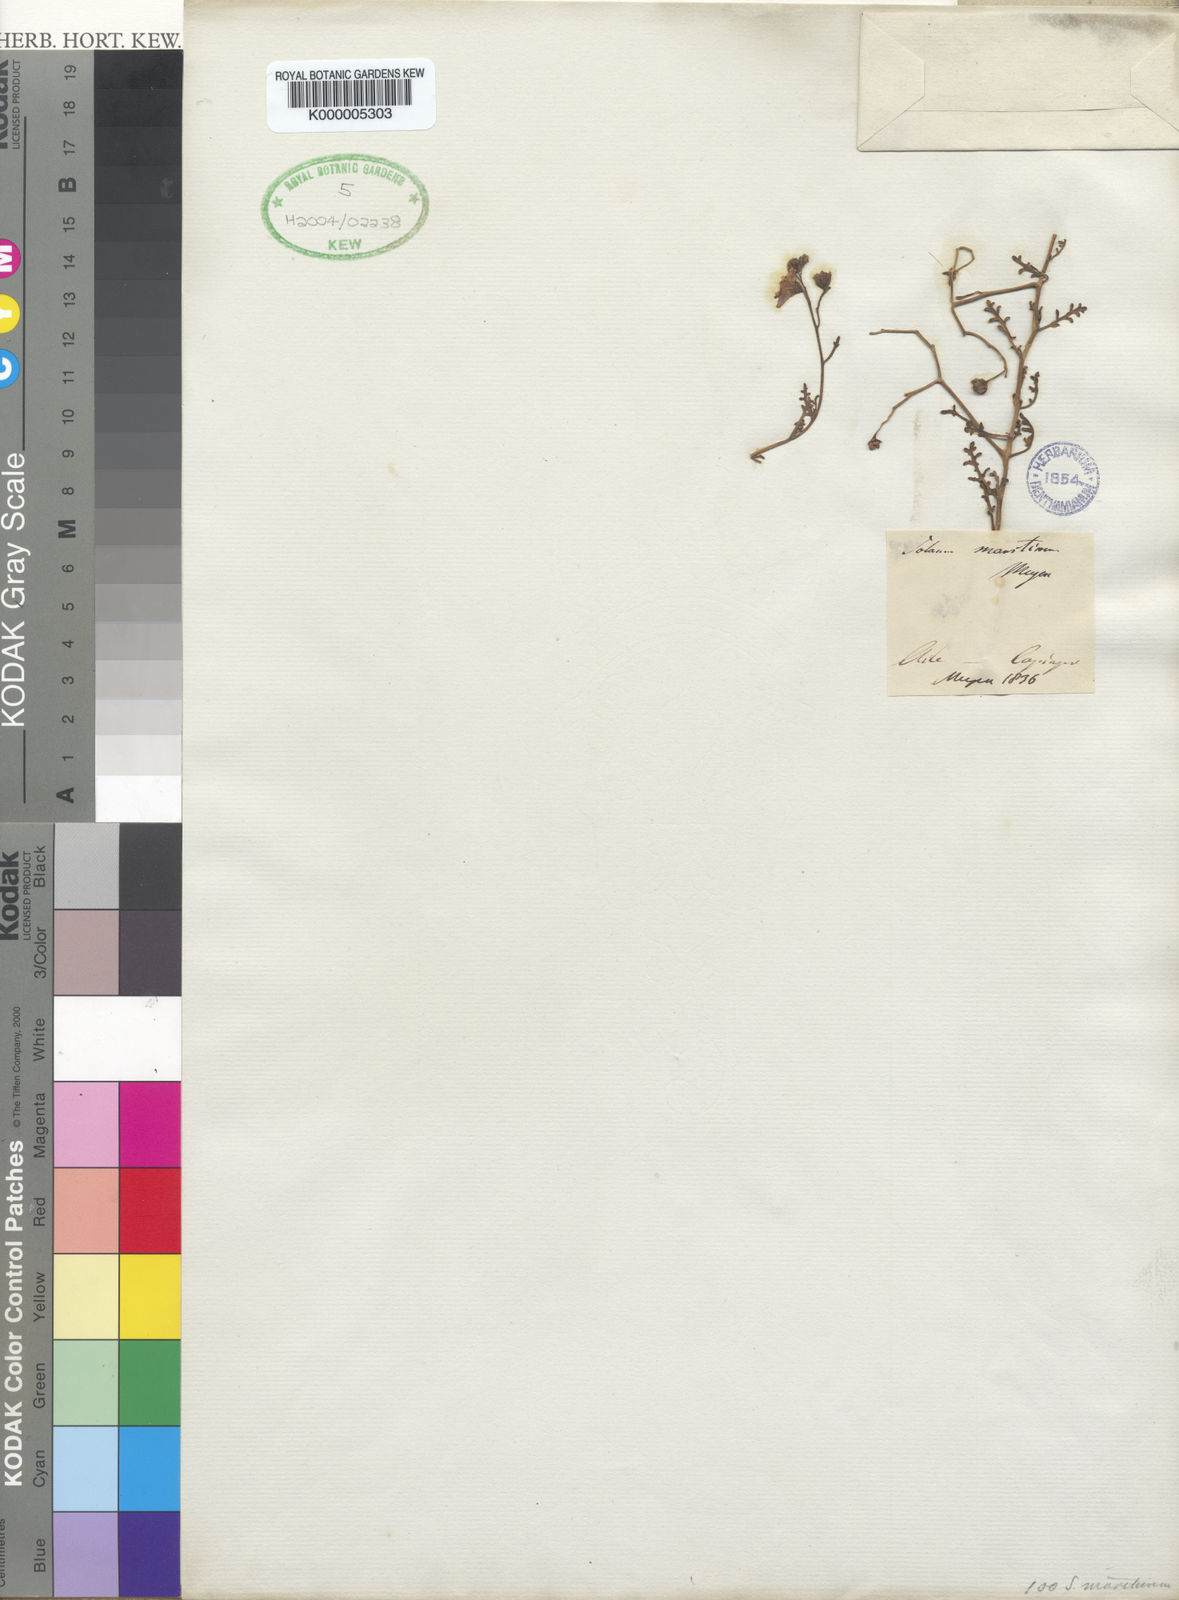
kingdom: Plantae
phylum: Tracheophyta
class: Magnoliopsida
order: Solanales
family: Solanaceae
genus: Solanum
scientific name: Solanum pinnatum
